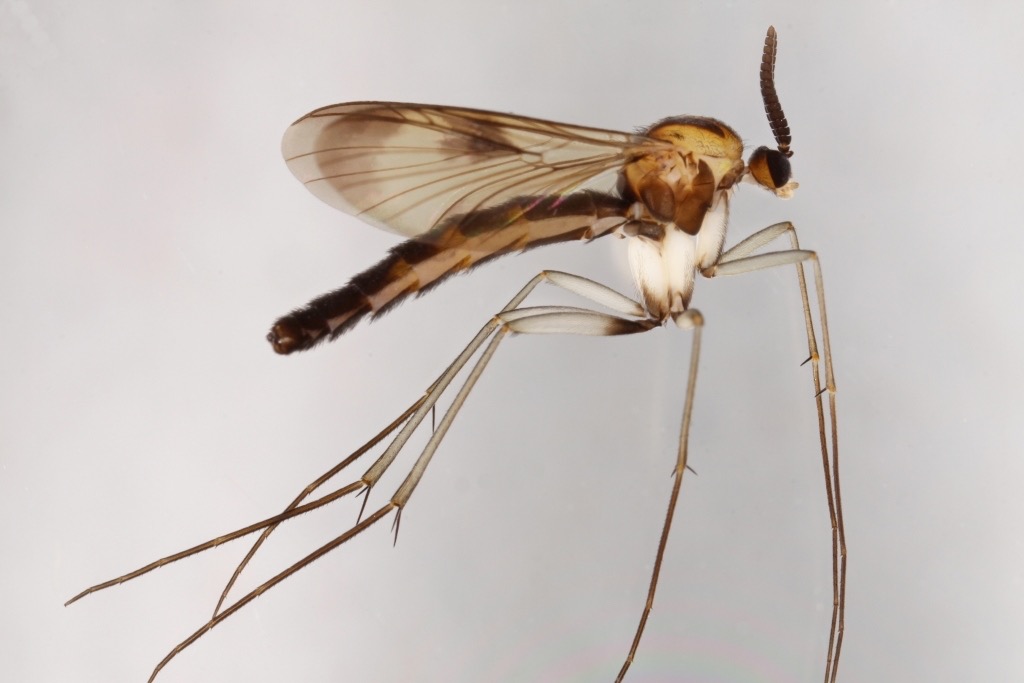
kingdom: Animalia
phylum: Arthropoda
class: Insecta
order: Diptera
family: Keroplatidae
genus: Cerotelion
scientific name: Cerotelion striatum
